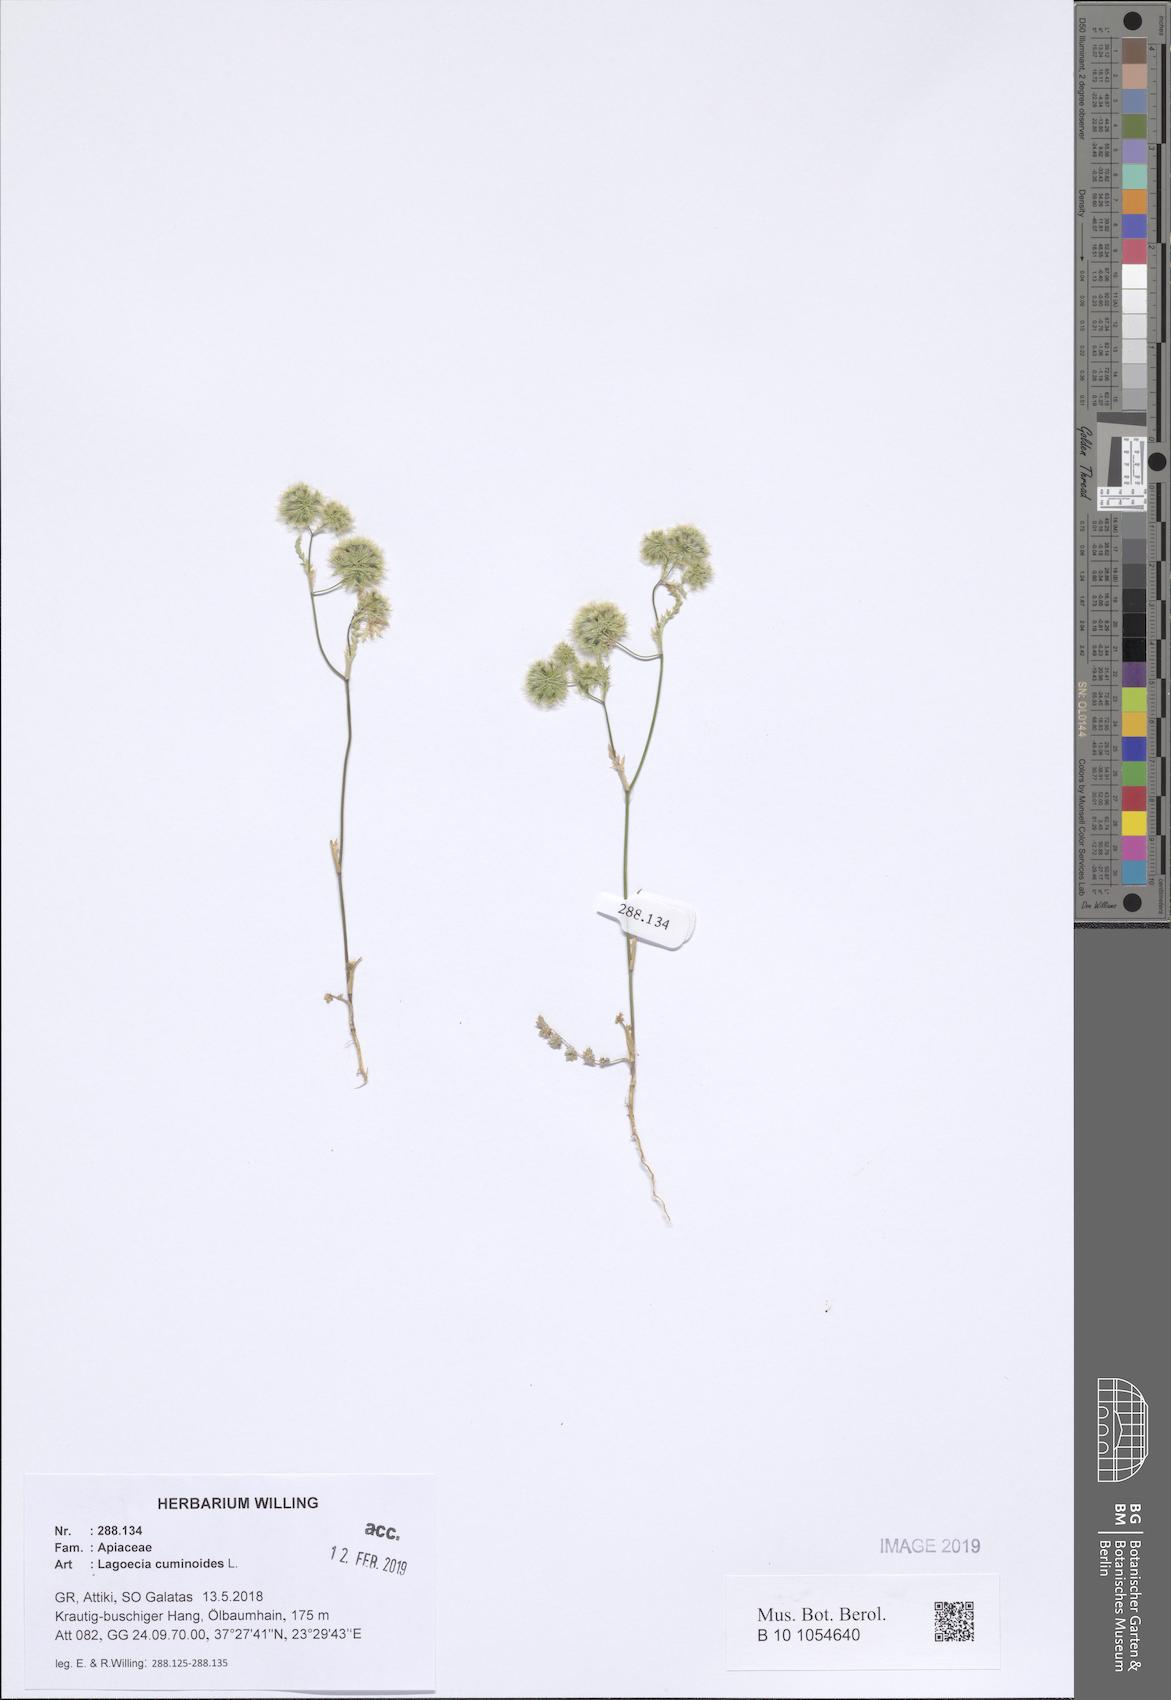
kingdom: Plantae
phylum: Tracheophyta
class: Magnoliopsida
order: Apiales
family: Apiaceae
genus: Lagoecia
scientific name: Lagoecia cuminoides
